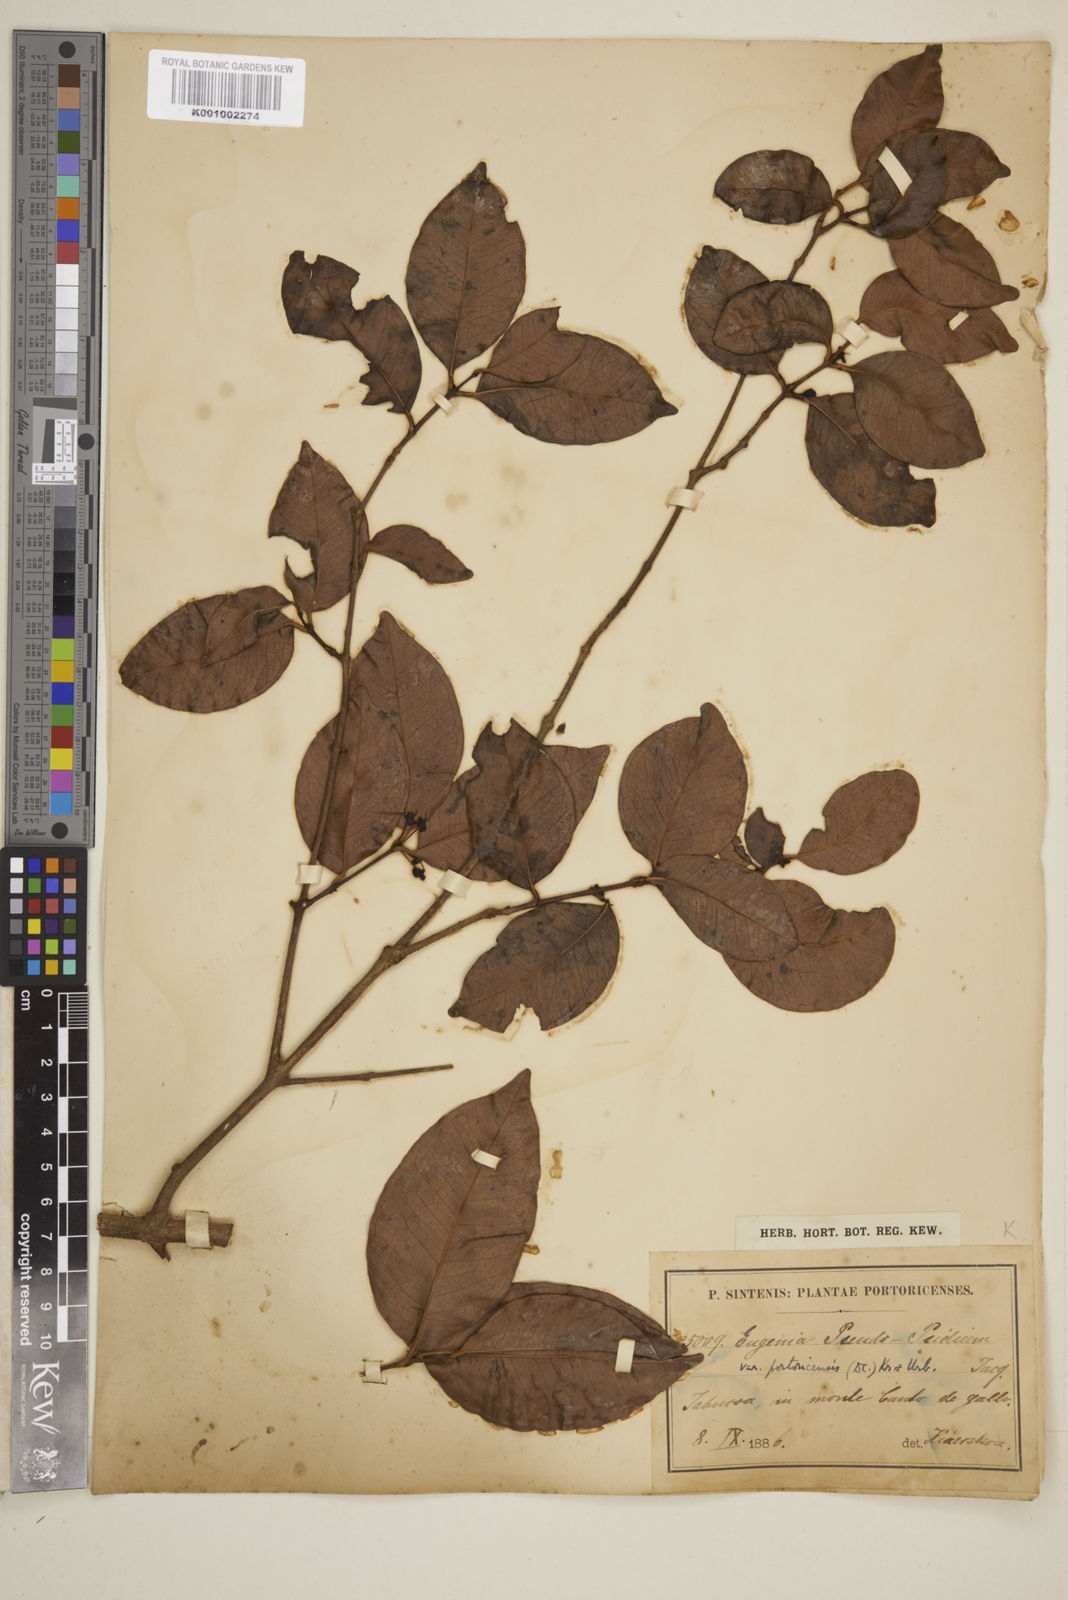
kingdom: Plantae
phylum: Tracheophyta
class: Magnoliopsida
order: Myrtales
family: Myrtaceae
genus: Eugenia
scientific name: Eugenia pseudopsidium
